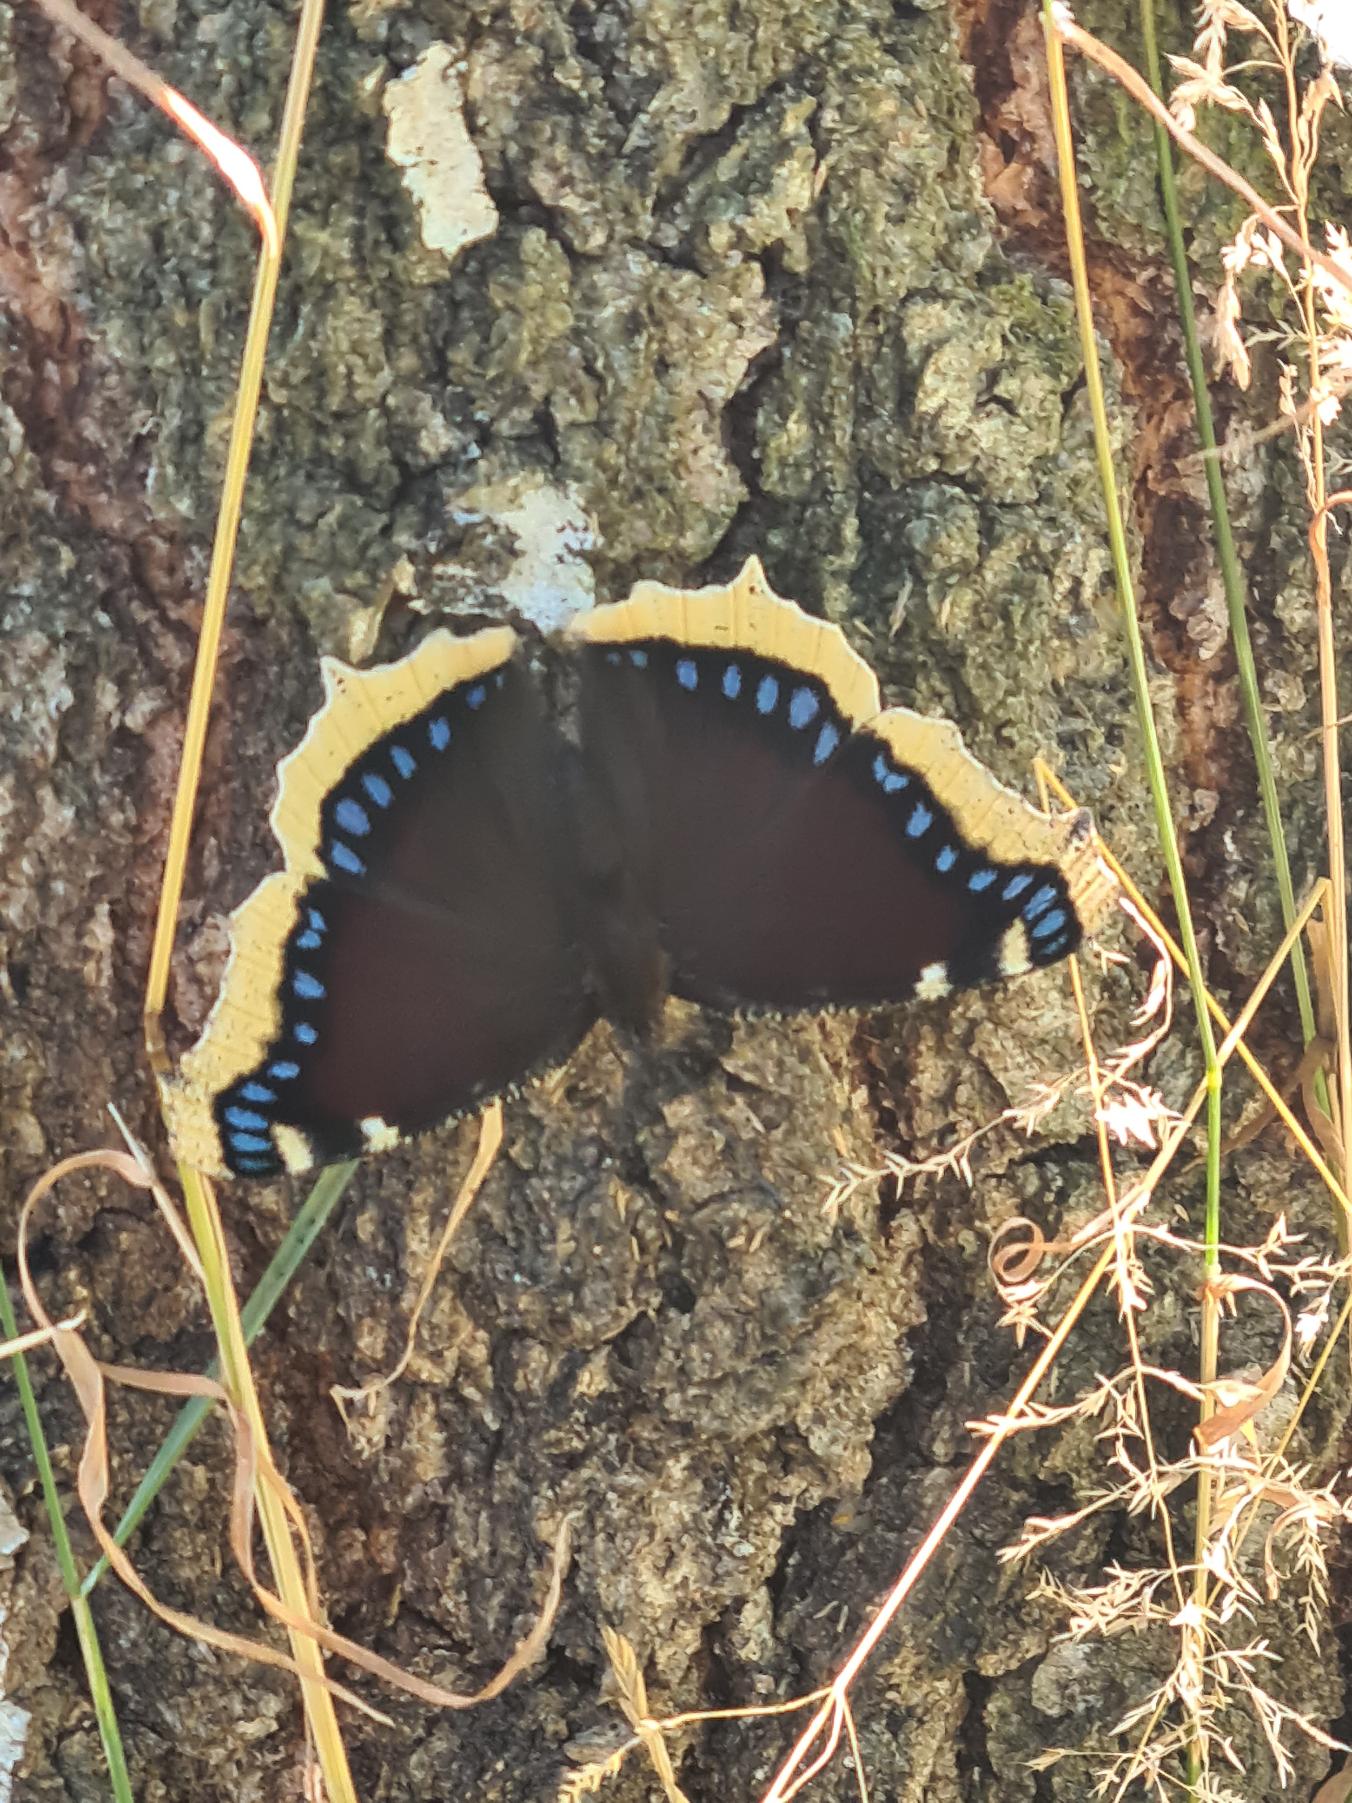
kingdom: Animalia
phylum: Arthropoda
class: Insecta
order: Lepidoptera
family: Nymphalidae
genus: Nymphalis
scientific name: Nymphalis antiopa
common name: Sørgekåbe
